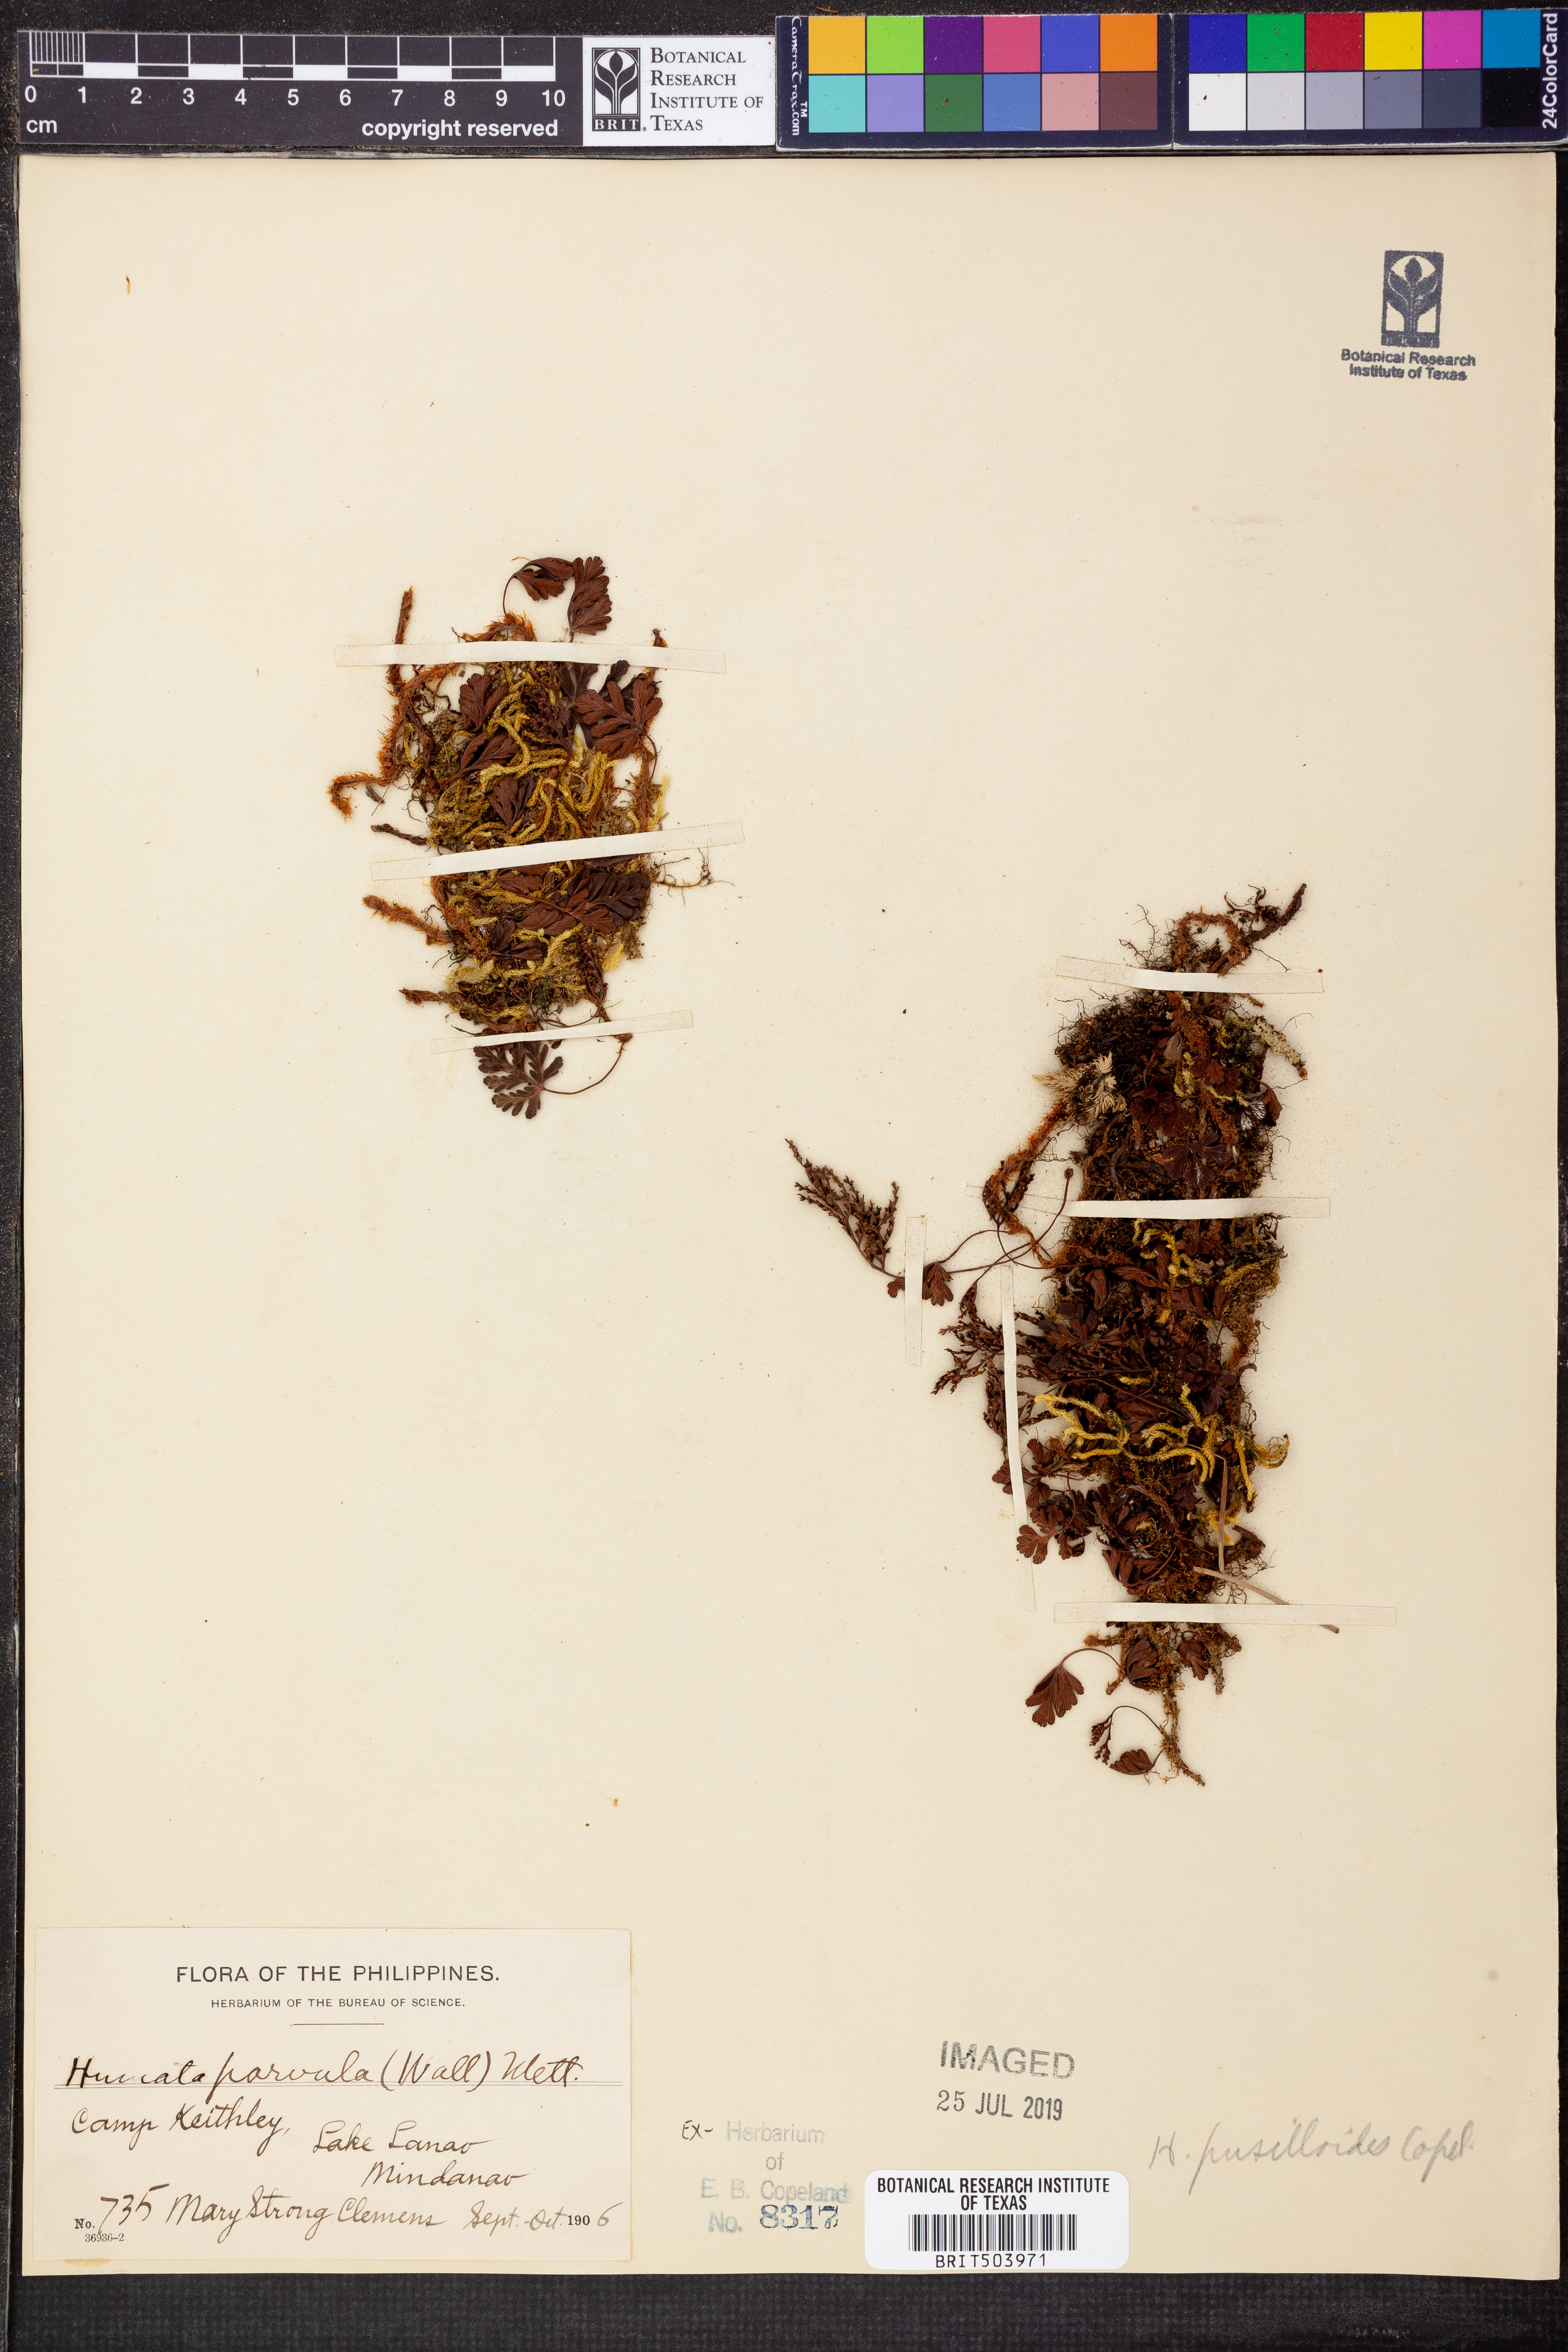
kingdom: Plantae
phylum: Tracheophyta
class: Polypodiopsida
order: Polypodiales
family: Davalliaceae
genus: Davallia
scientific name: Davallia parvula
